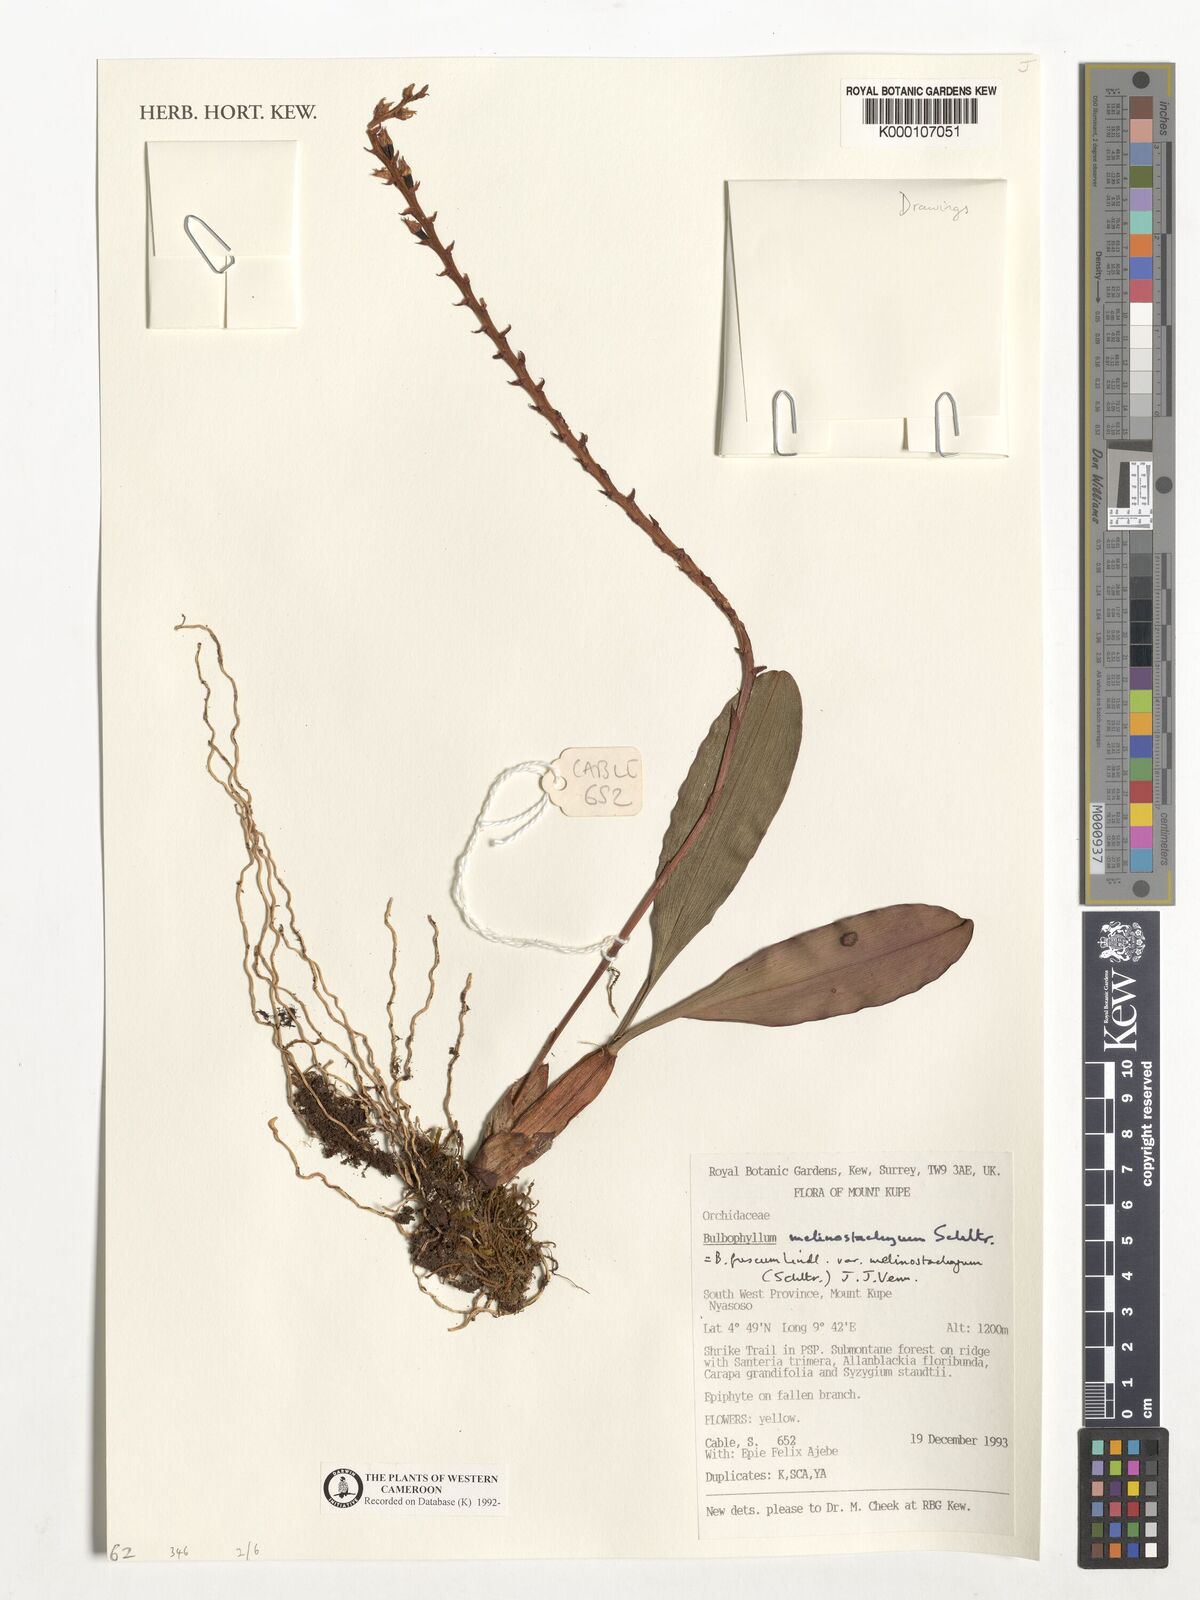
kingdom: Plantae
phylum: Tracheophyta
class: Liliopsida
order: Asparagales
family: Orchidaceae
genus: Bulbophyllum
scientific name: Bulbophyllum fuscum
